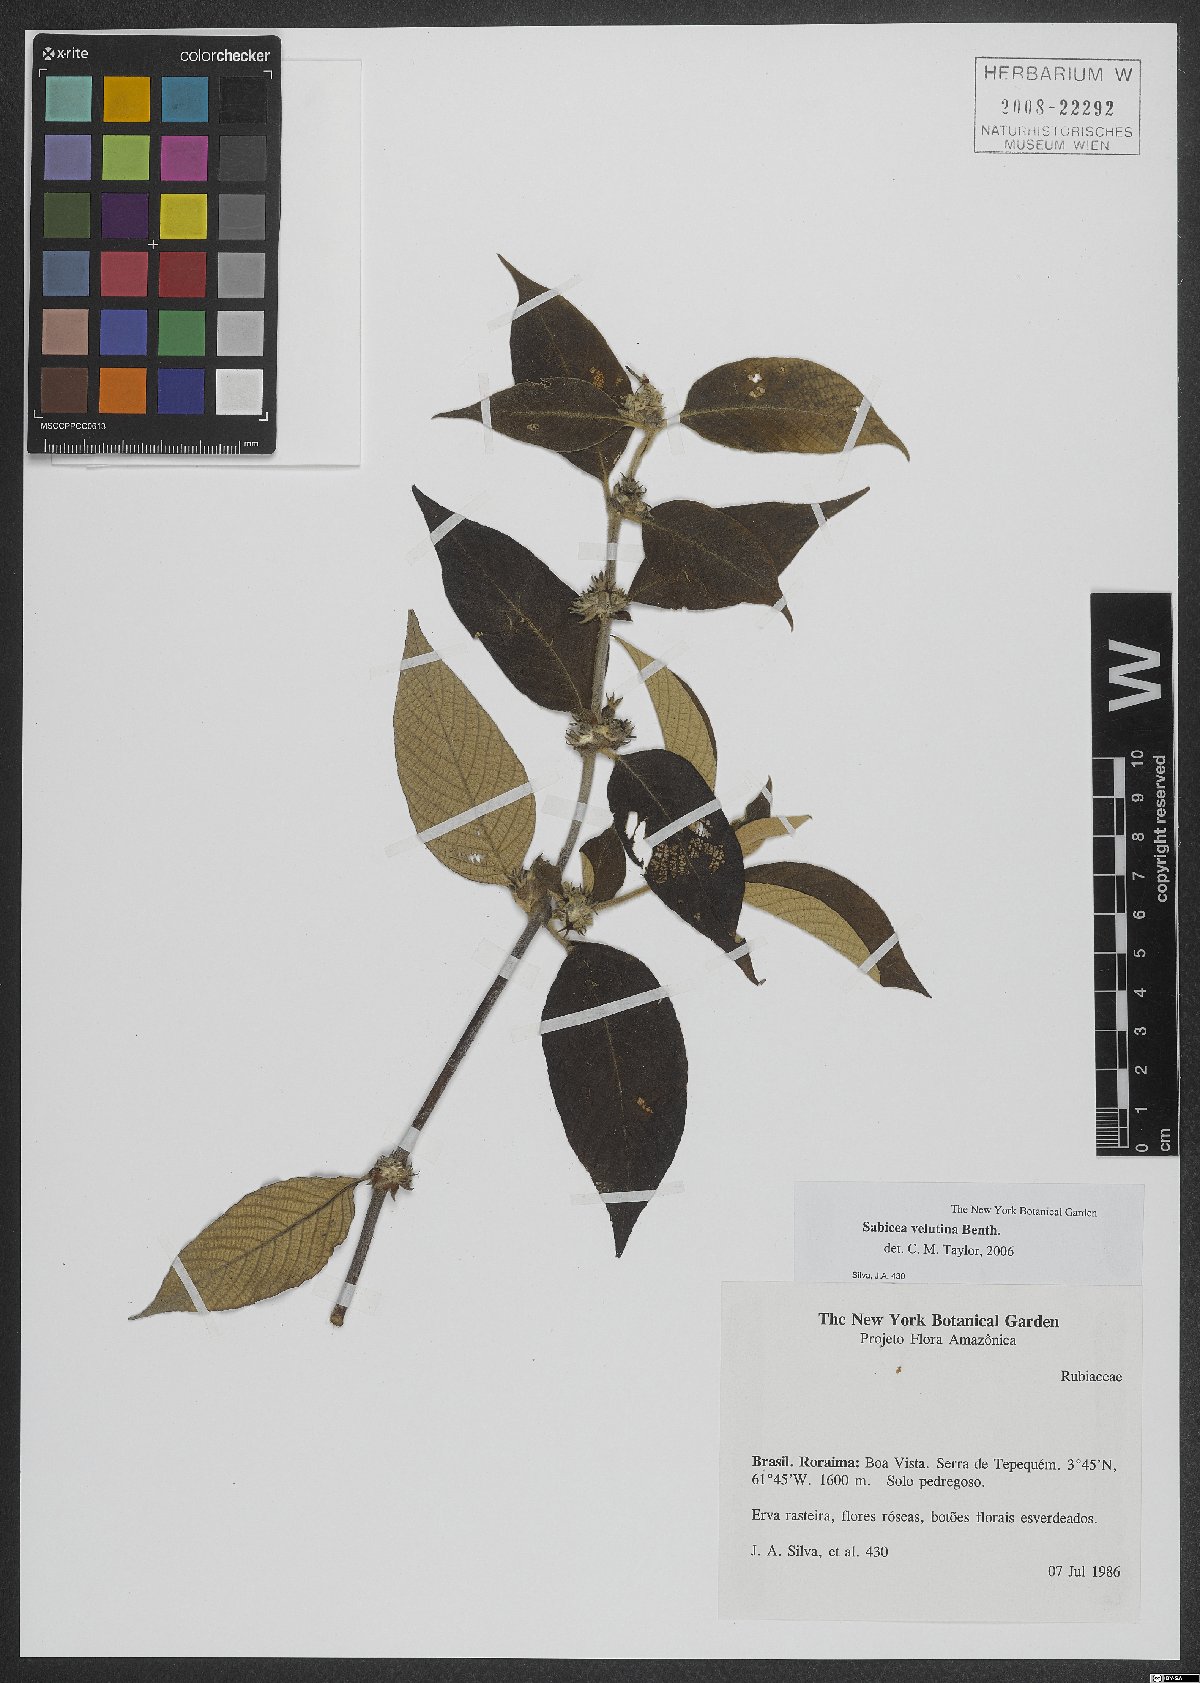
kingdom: Plantae
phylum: Tracheophyta
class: Magnoliopsida
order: Gentianales
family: Rubiaceae
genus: Sabicea
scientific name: Sabicea velutina
